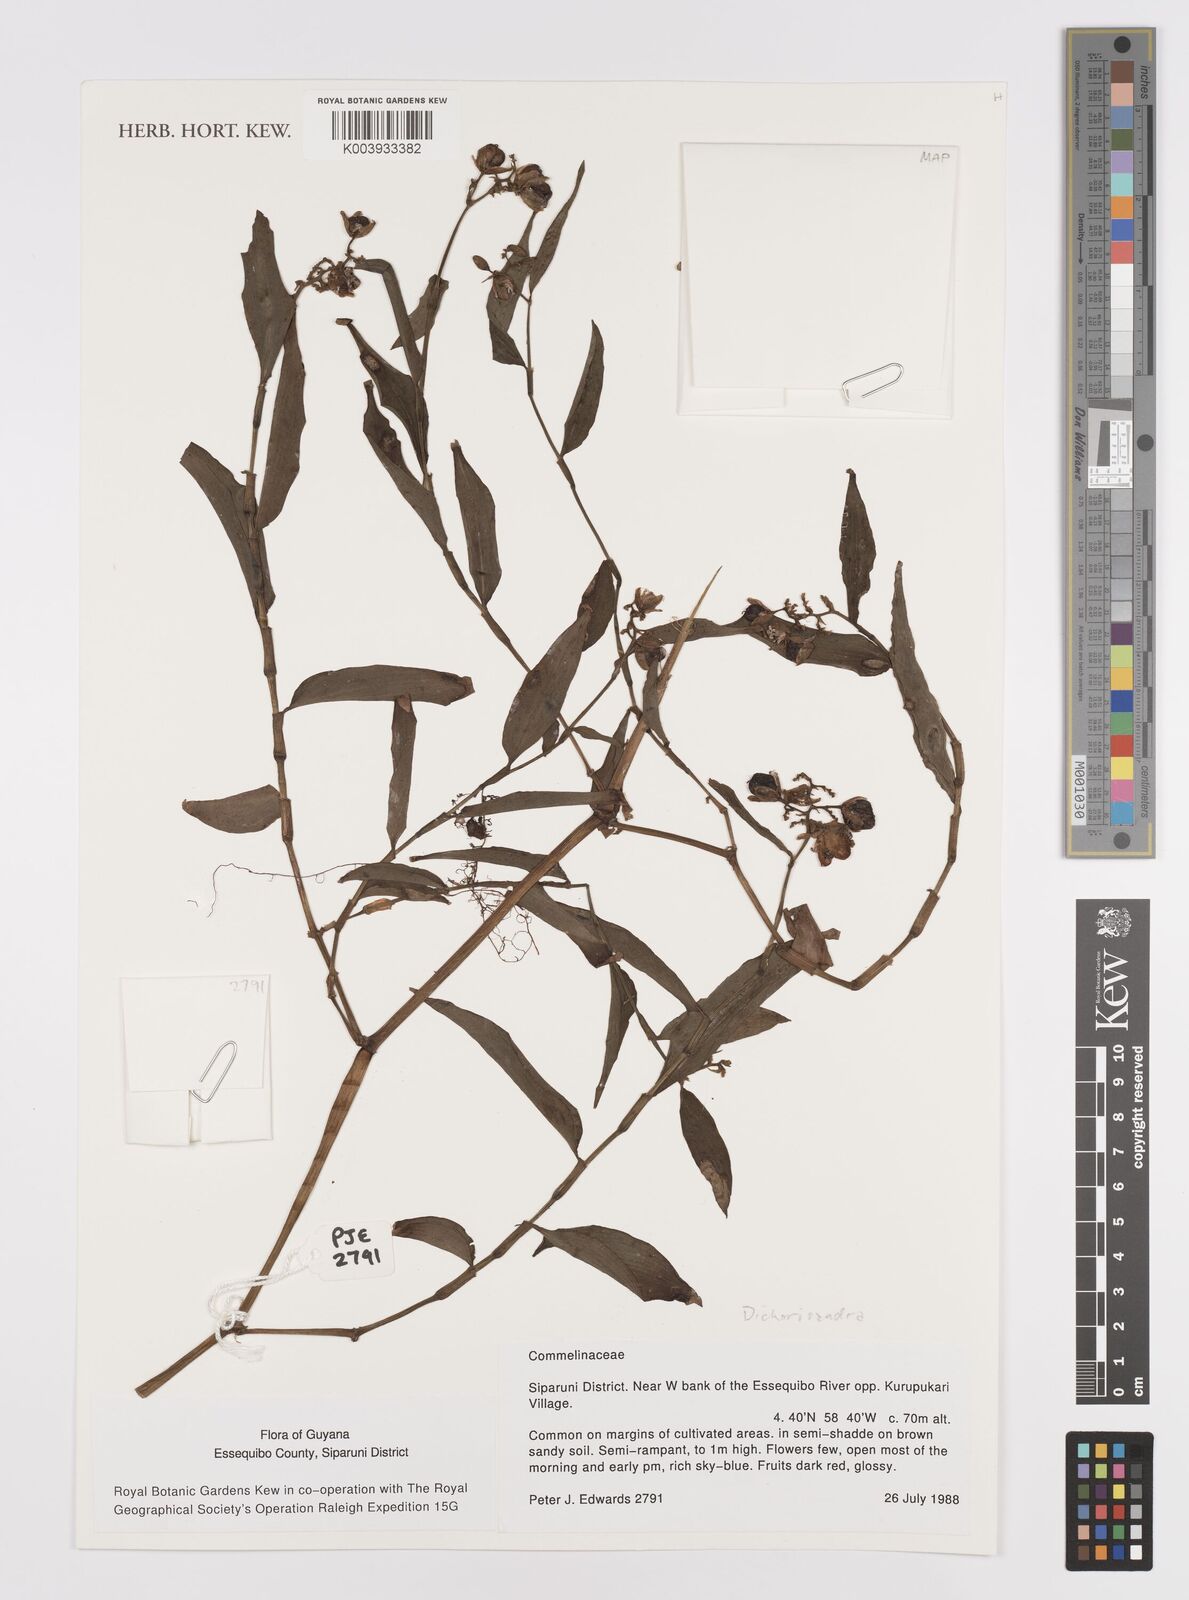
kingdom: Plantae
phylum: Tracheophyta
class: Liliopsida
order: Commelinales
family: Commelinaceae
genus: Dichorisandra
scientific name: Dichorisandra
